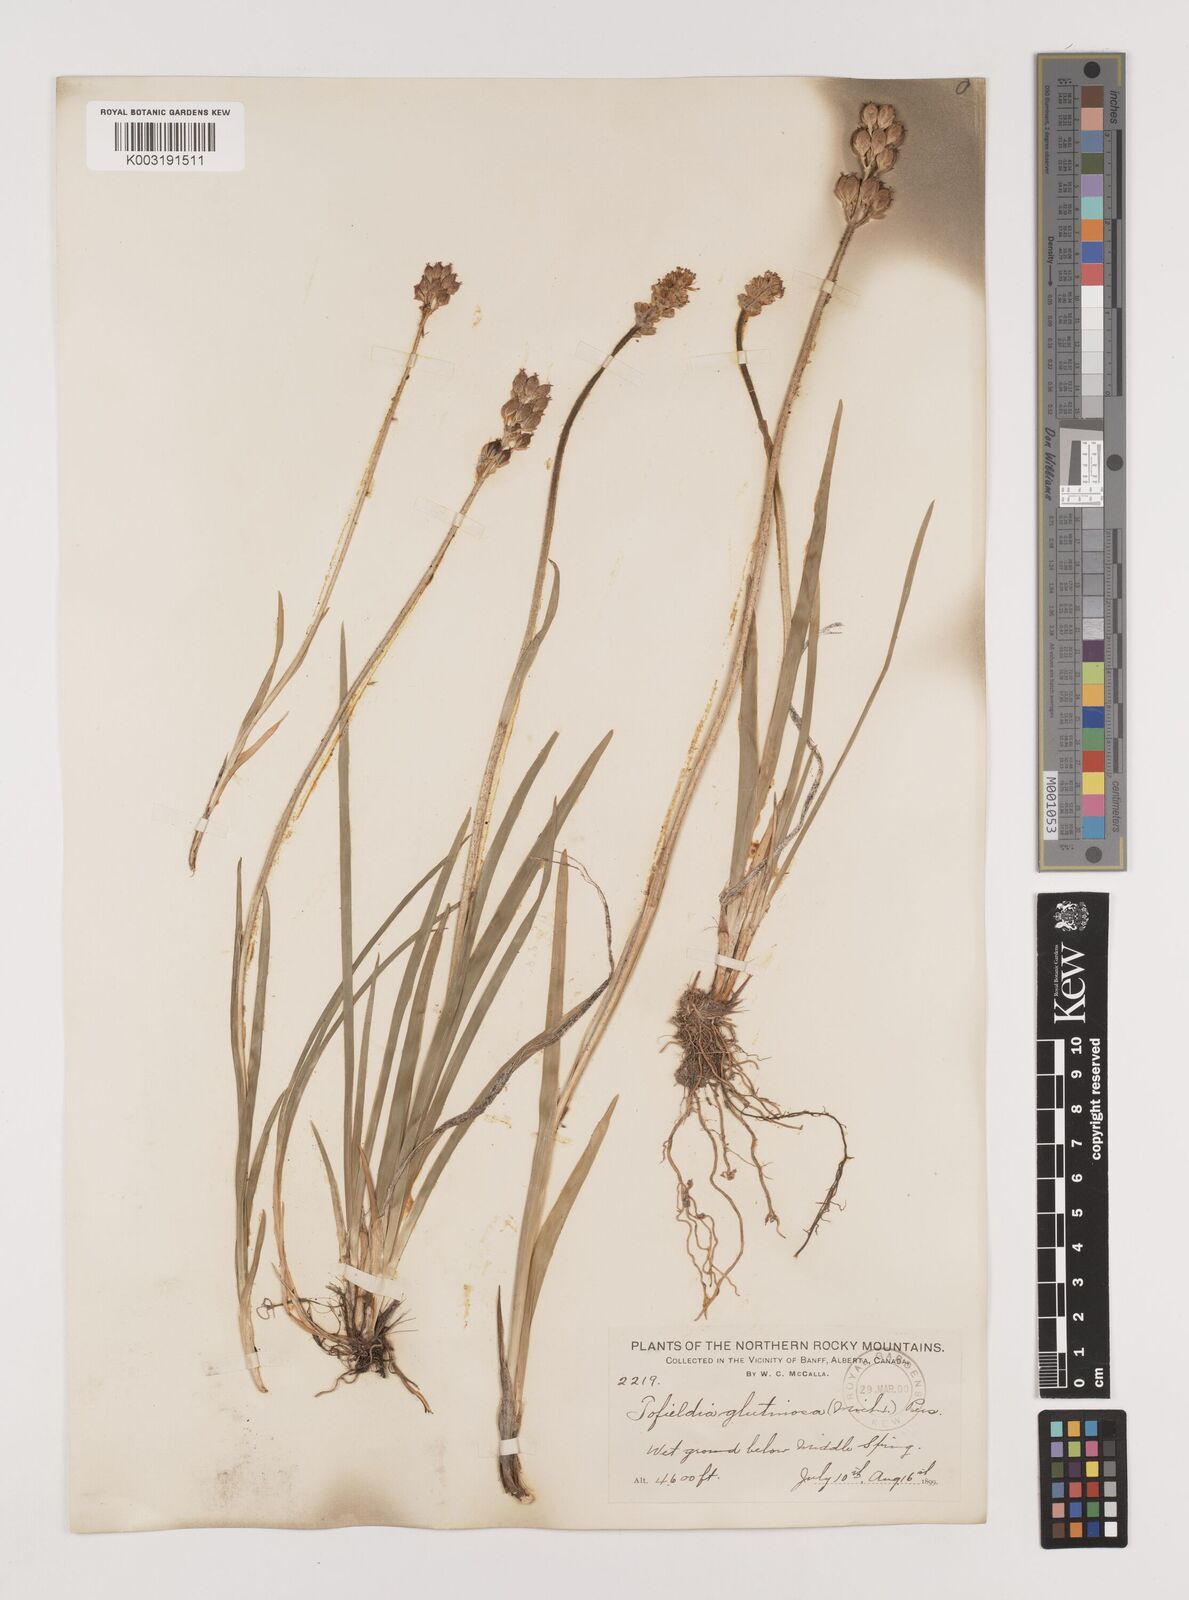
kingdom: Plantae
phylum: Tracheophyta
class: Liliopsida
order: Alismatales
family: Tofieldiaceae
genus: Triantha
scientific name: Triantha glutinosa
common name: Glutinous tofieldia
